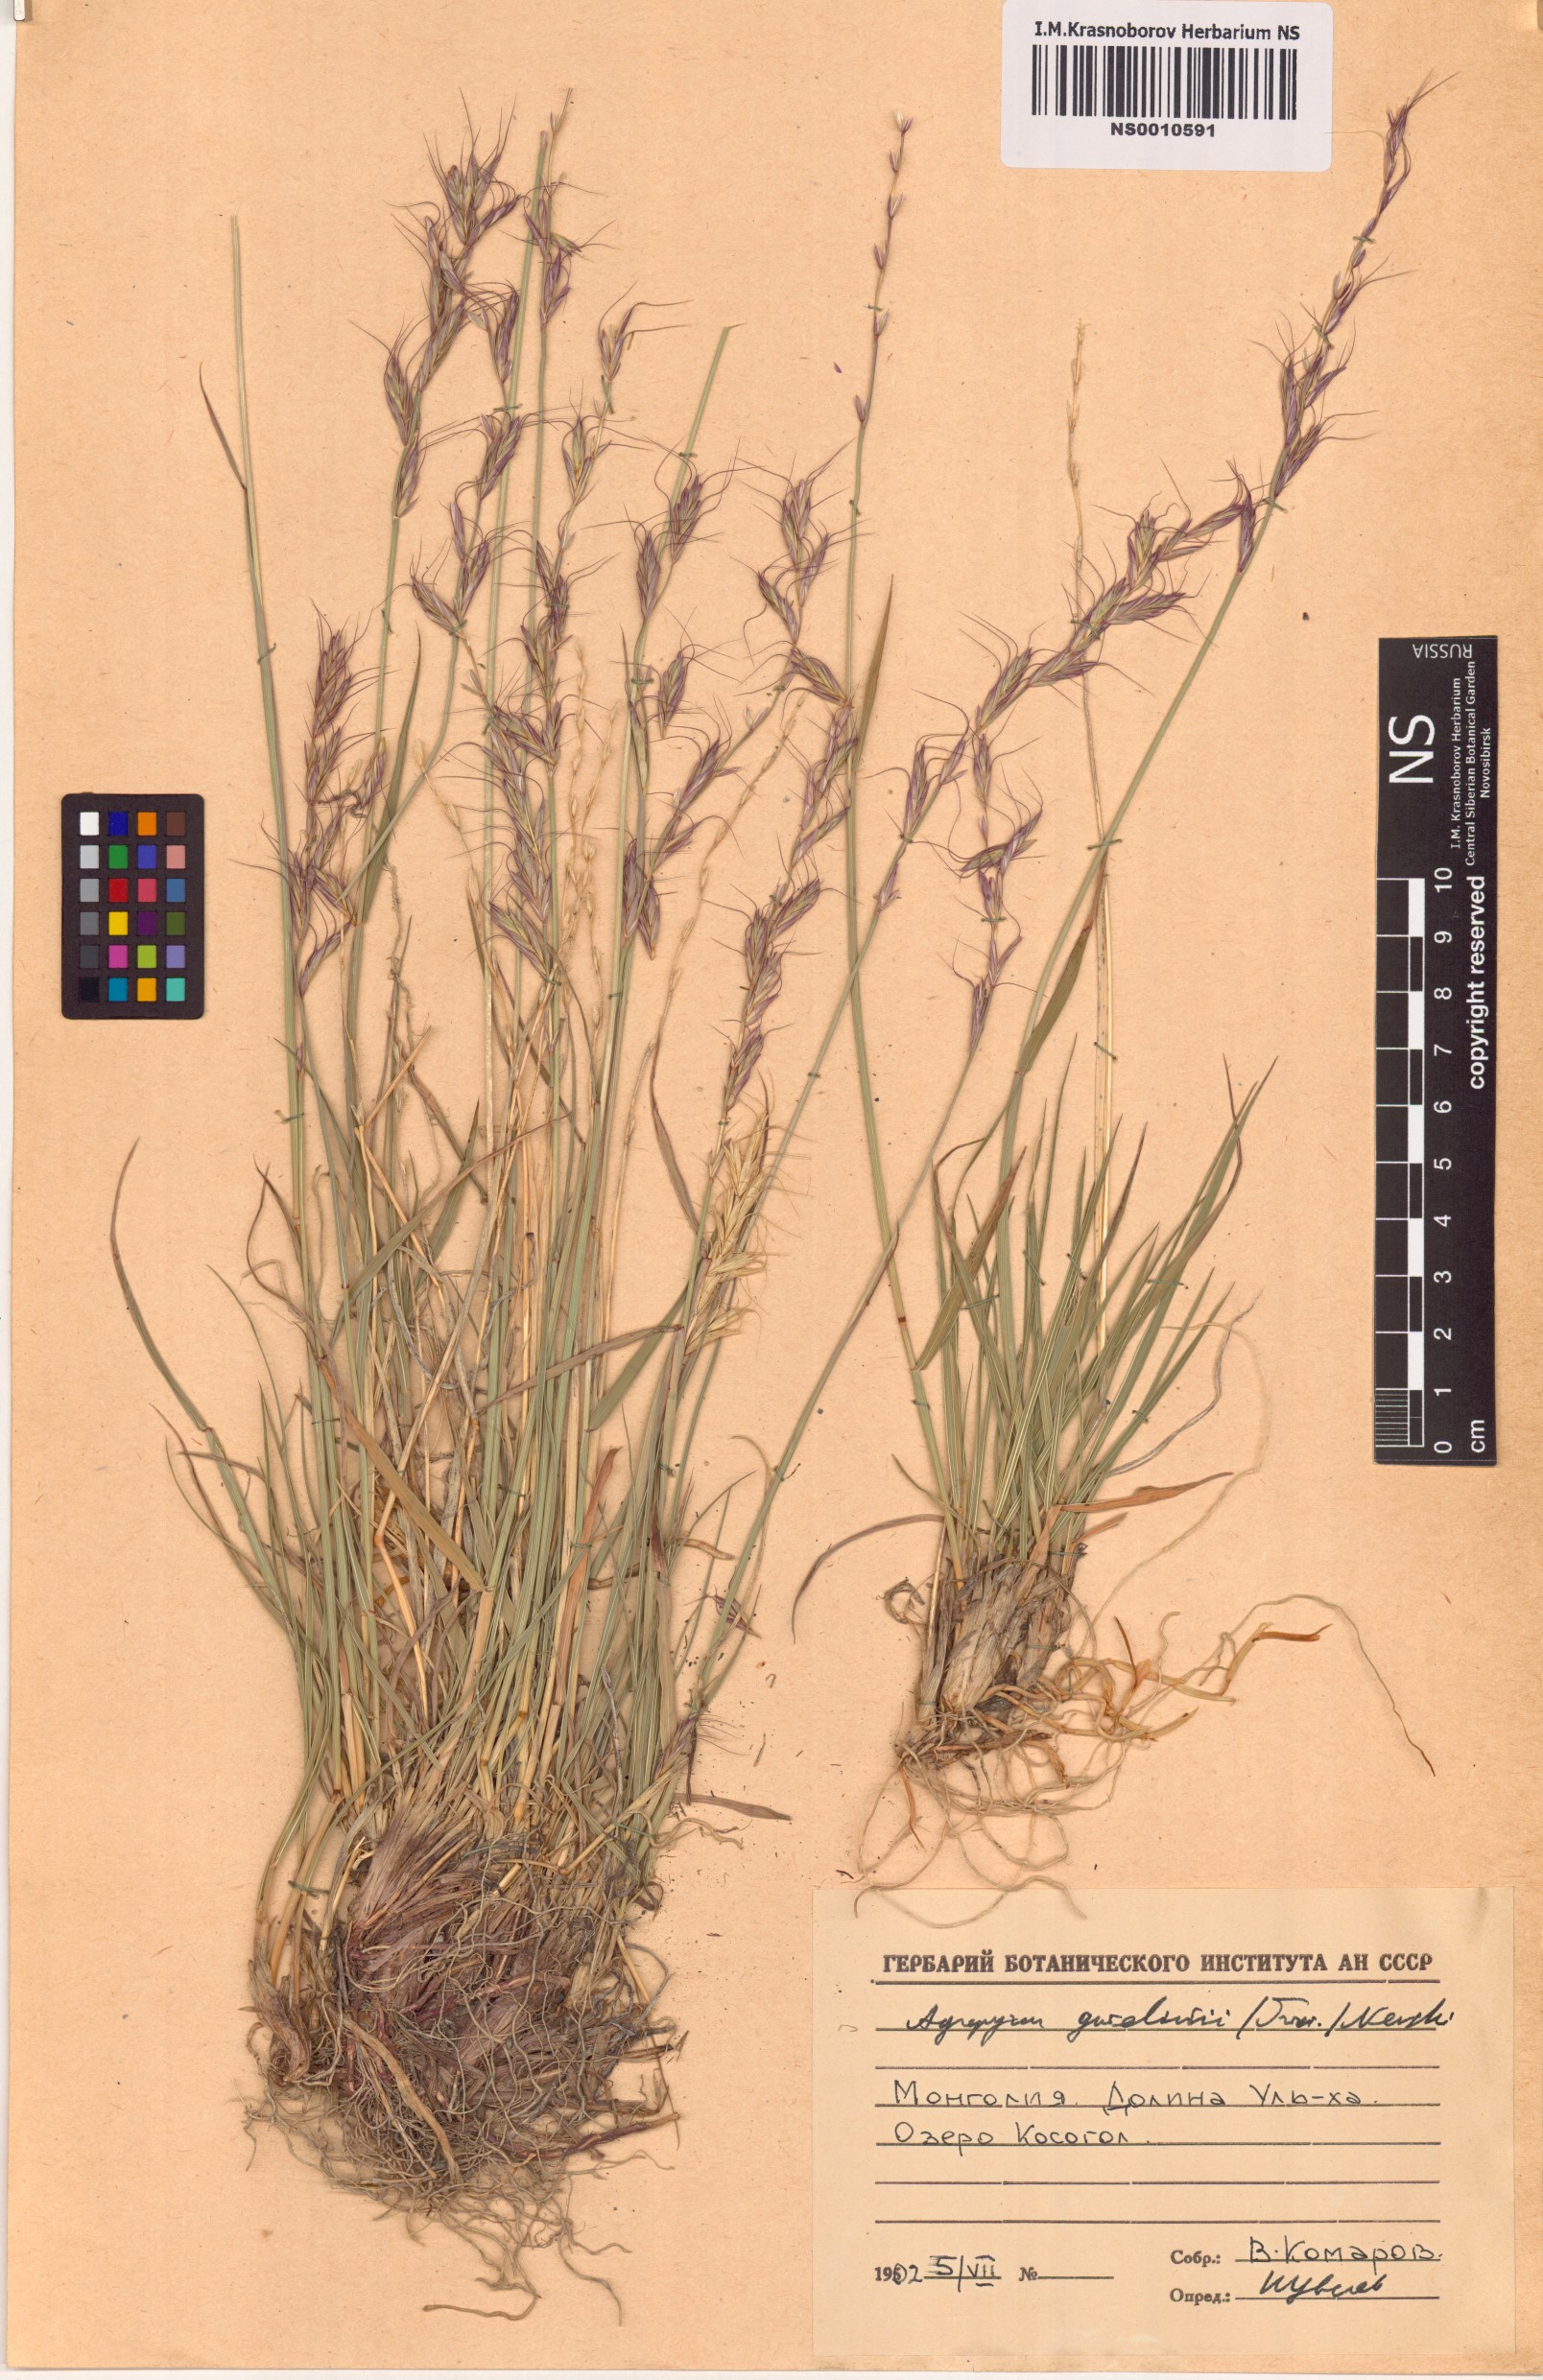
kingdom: Plantae
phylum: Tracheophyta
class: Liliopsida
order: Poales
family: Poaceae
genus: Elymus
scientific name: Elymus gmelinii
